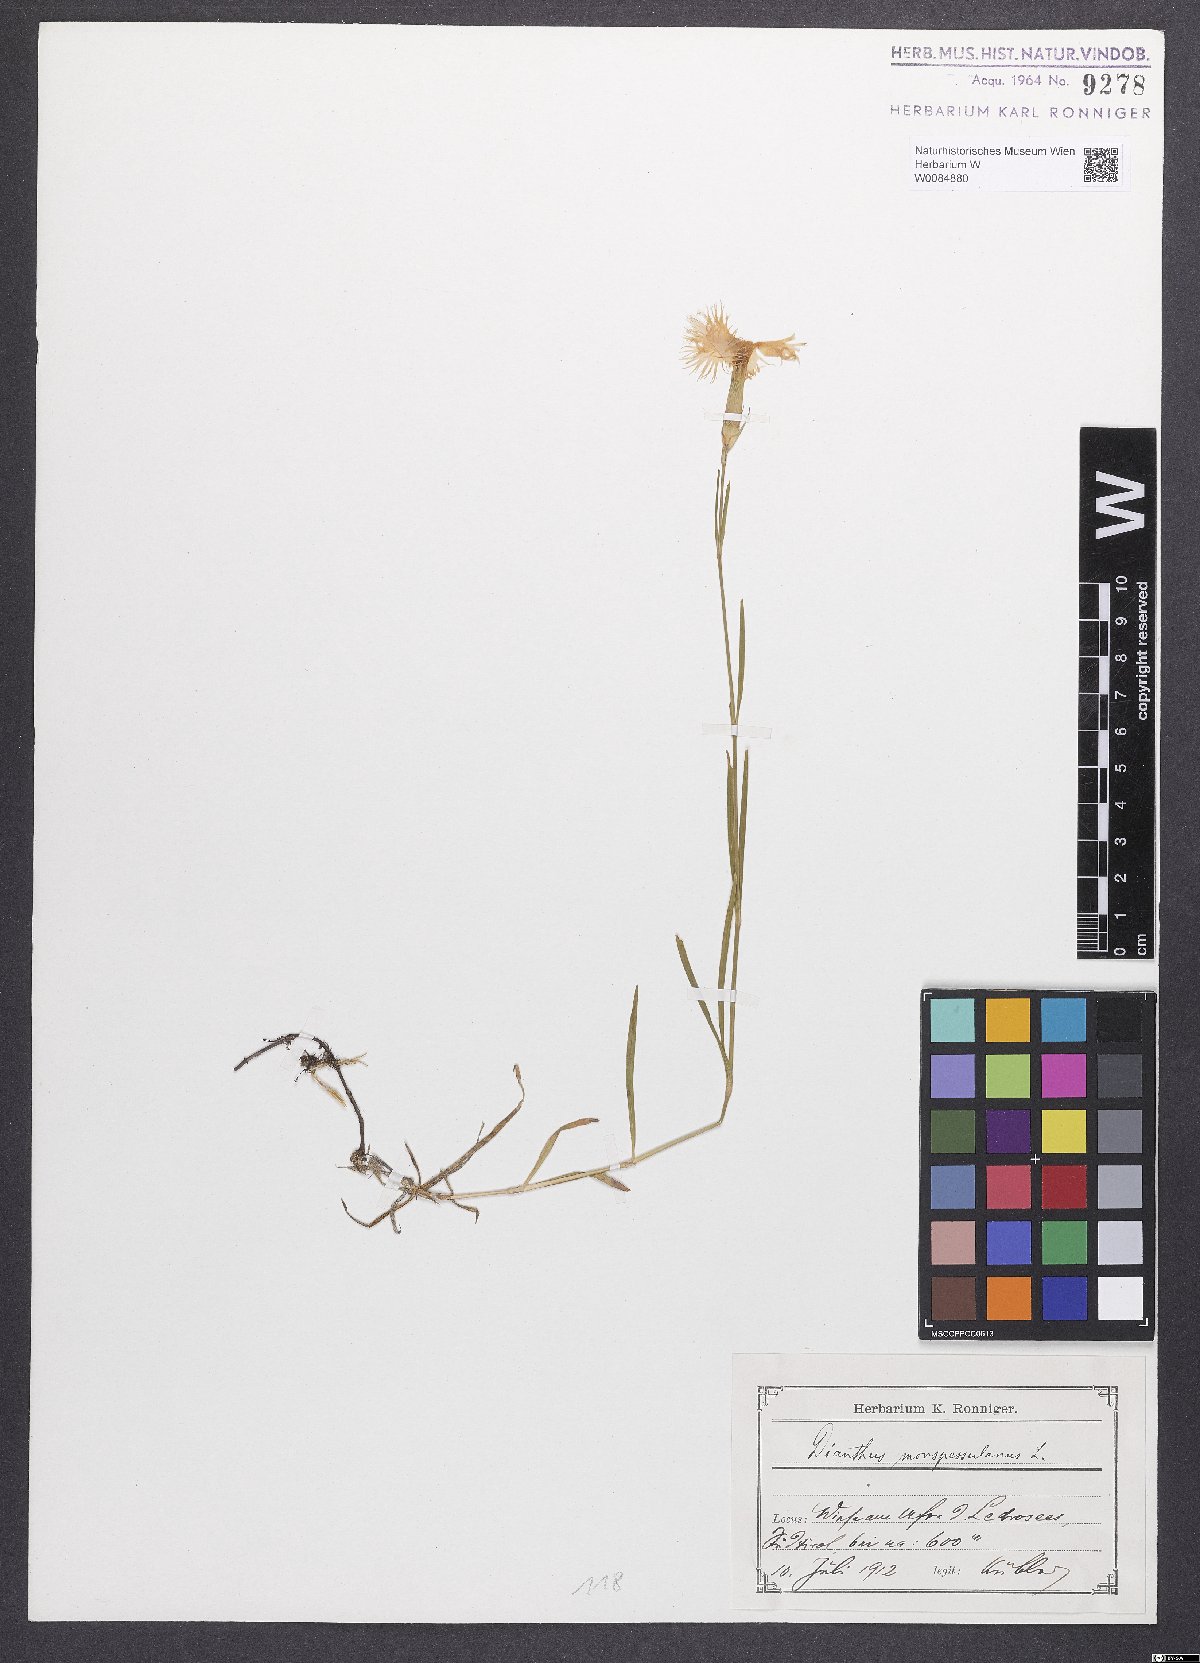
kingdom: Plantae
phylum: Tracheophyta
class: Magnoliopsida
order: Caryophyllales
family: Caryophyllaceae
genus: Dianthus
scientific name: Dianthus hyssopifolius
